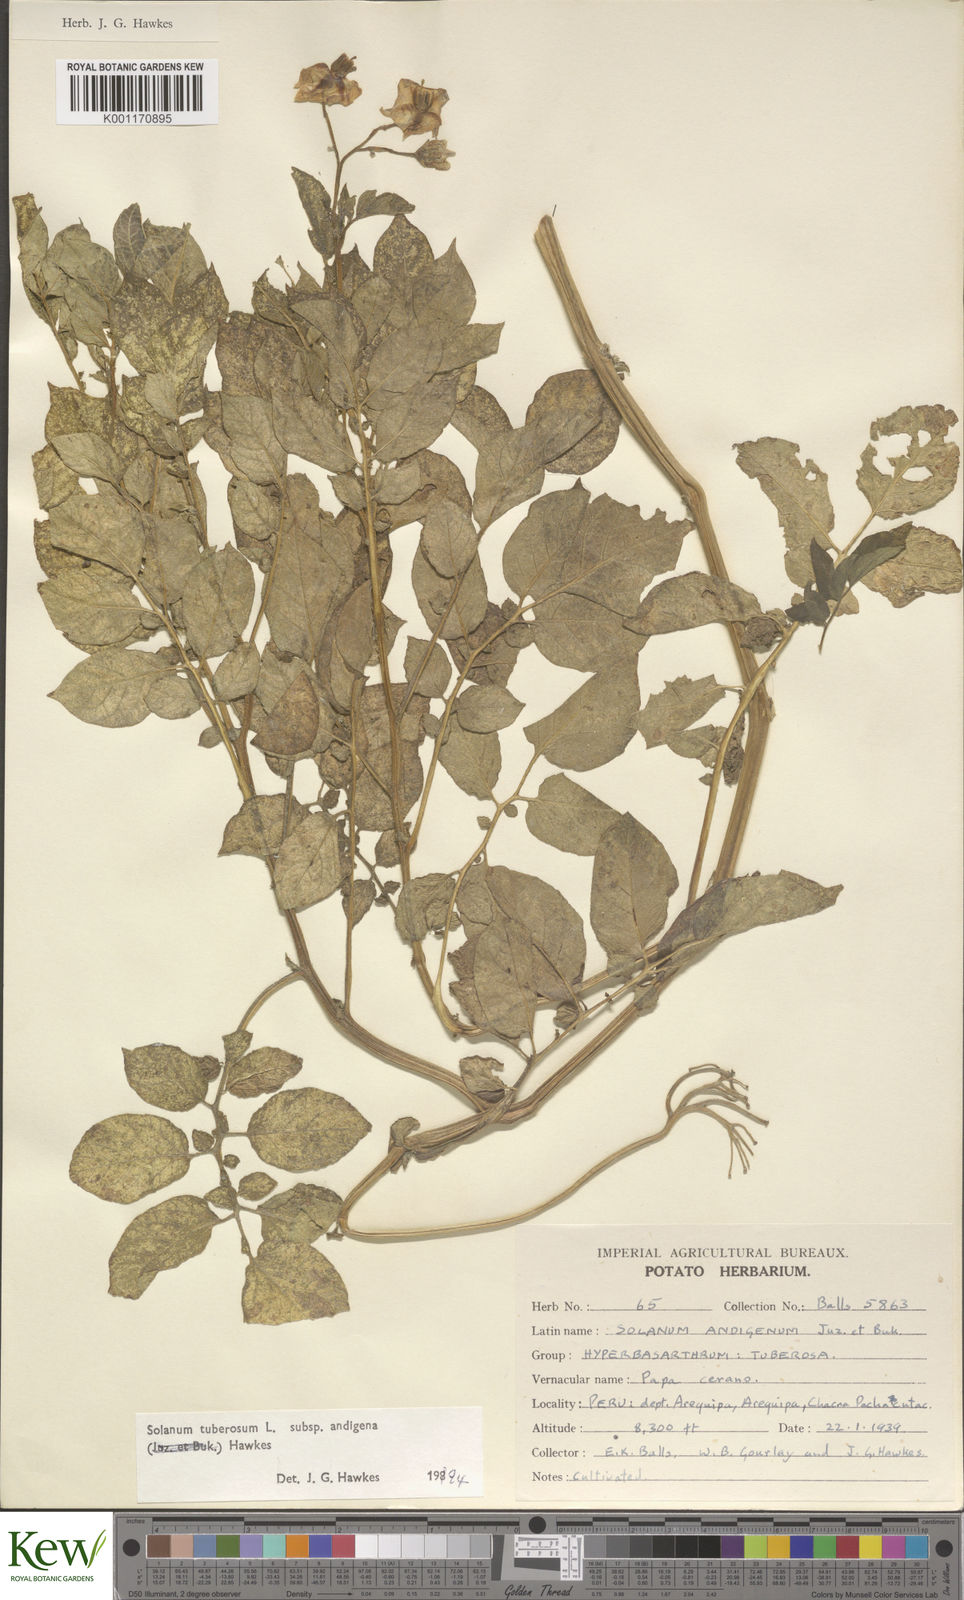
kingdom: Plantae
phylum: Tracheophyta
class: Magnoliopsida
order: Solanales
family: Solanaceae
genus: Solanum
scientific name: Solanum tuberosum
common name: Potato
